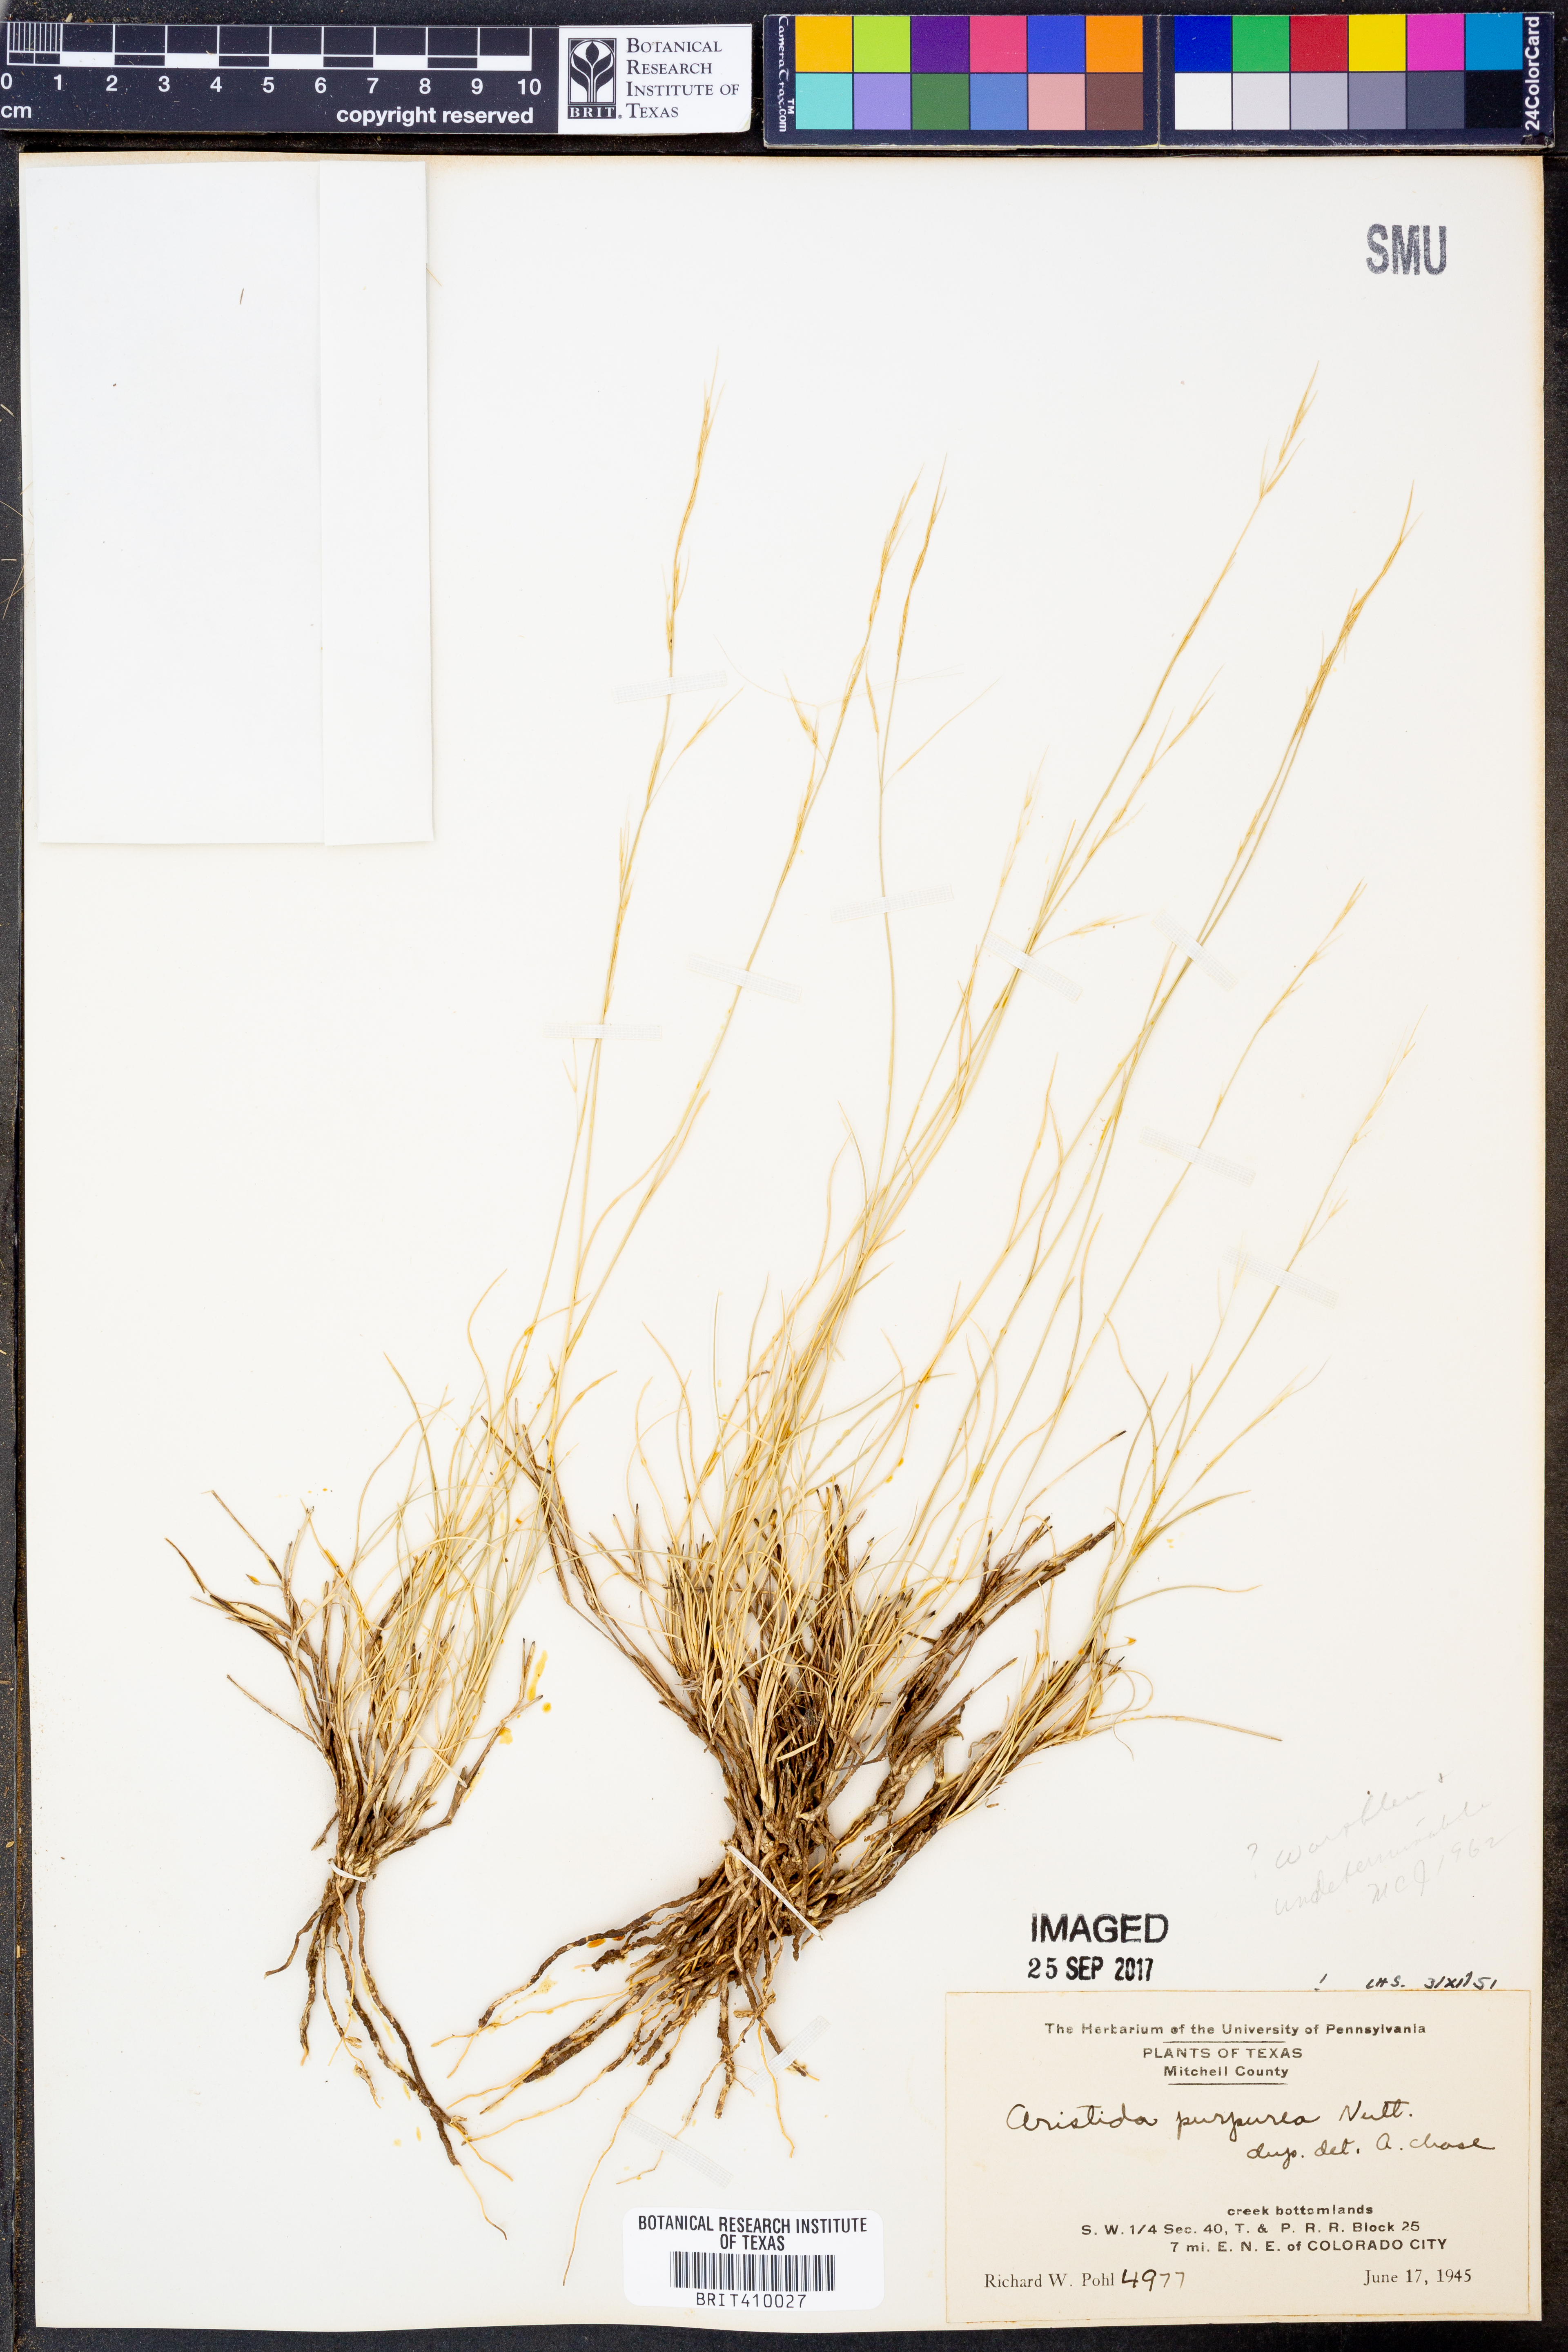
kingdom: Plantae
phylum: Tracheophyta
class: Liliopsida
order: Poales
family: Poaceae
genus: Aristida
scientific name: Aristida purpurea
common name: Purple threeawn
